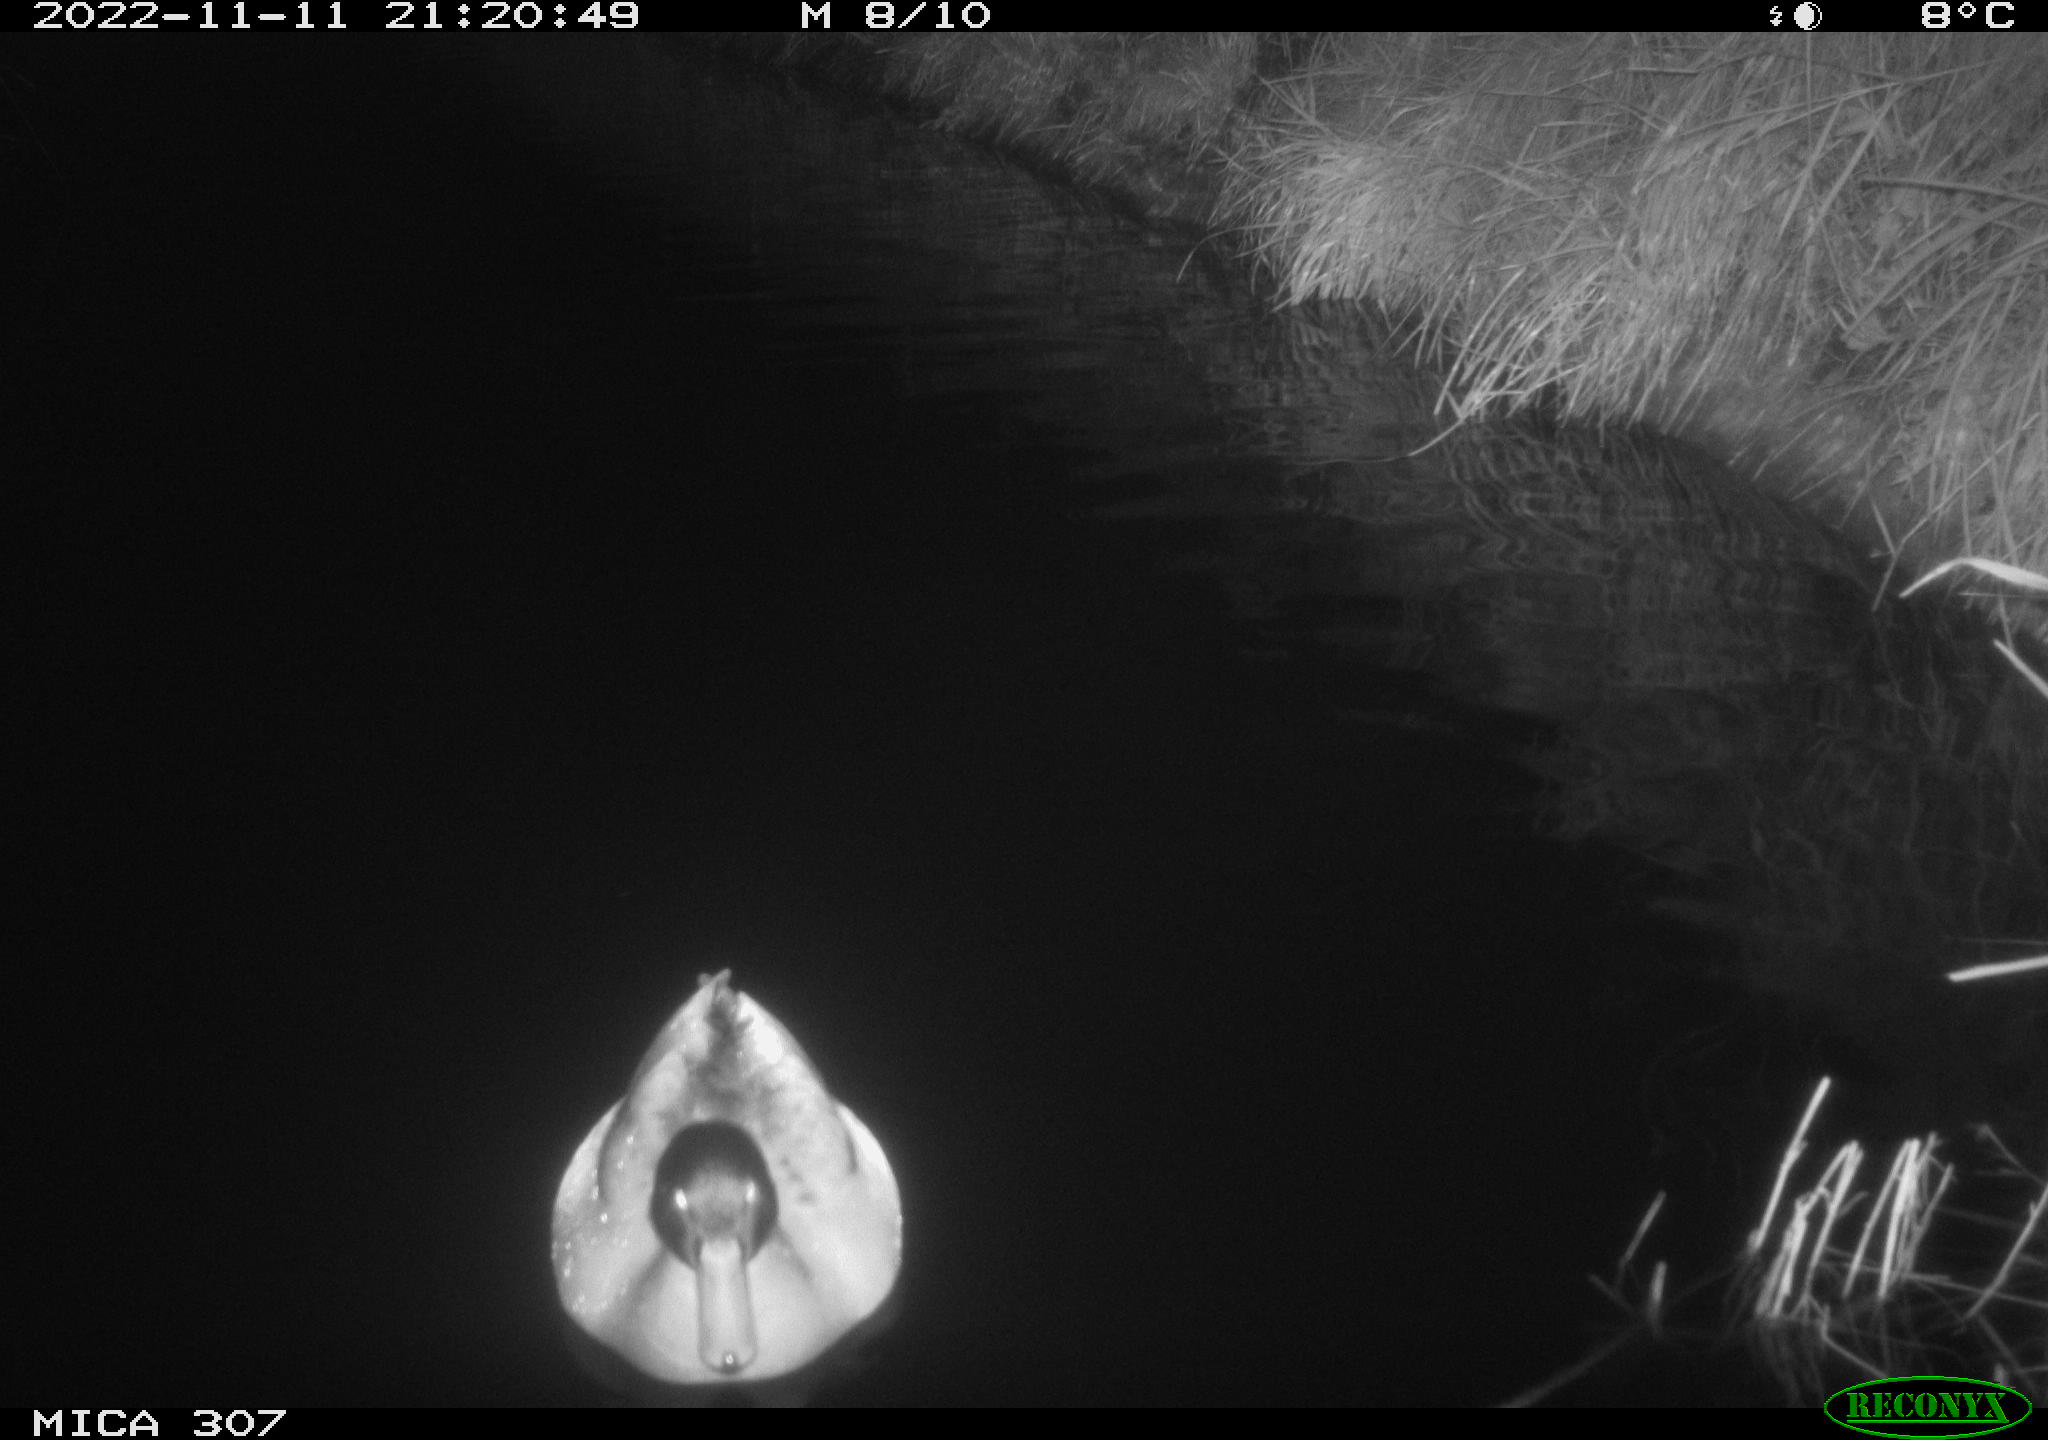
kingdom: Animalia
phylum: Chordata
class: Aves
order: Anseriformes
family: Anatidae
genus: Anas
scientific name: Anas
